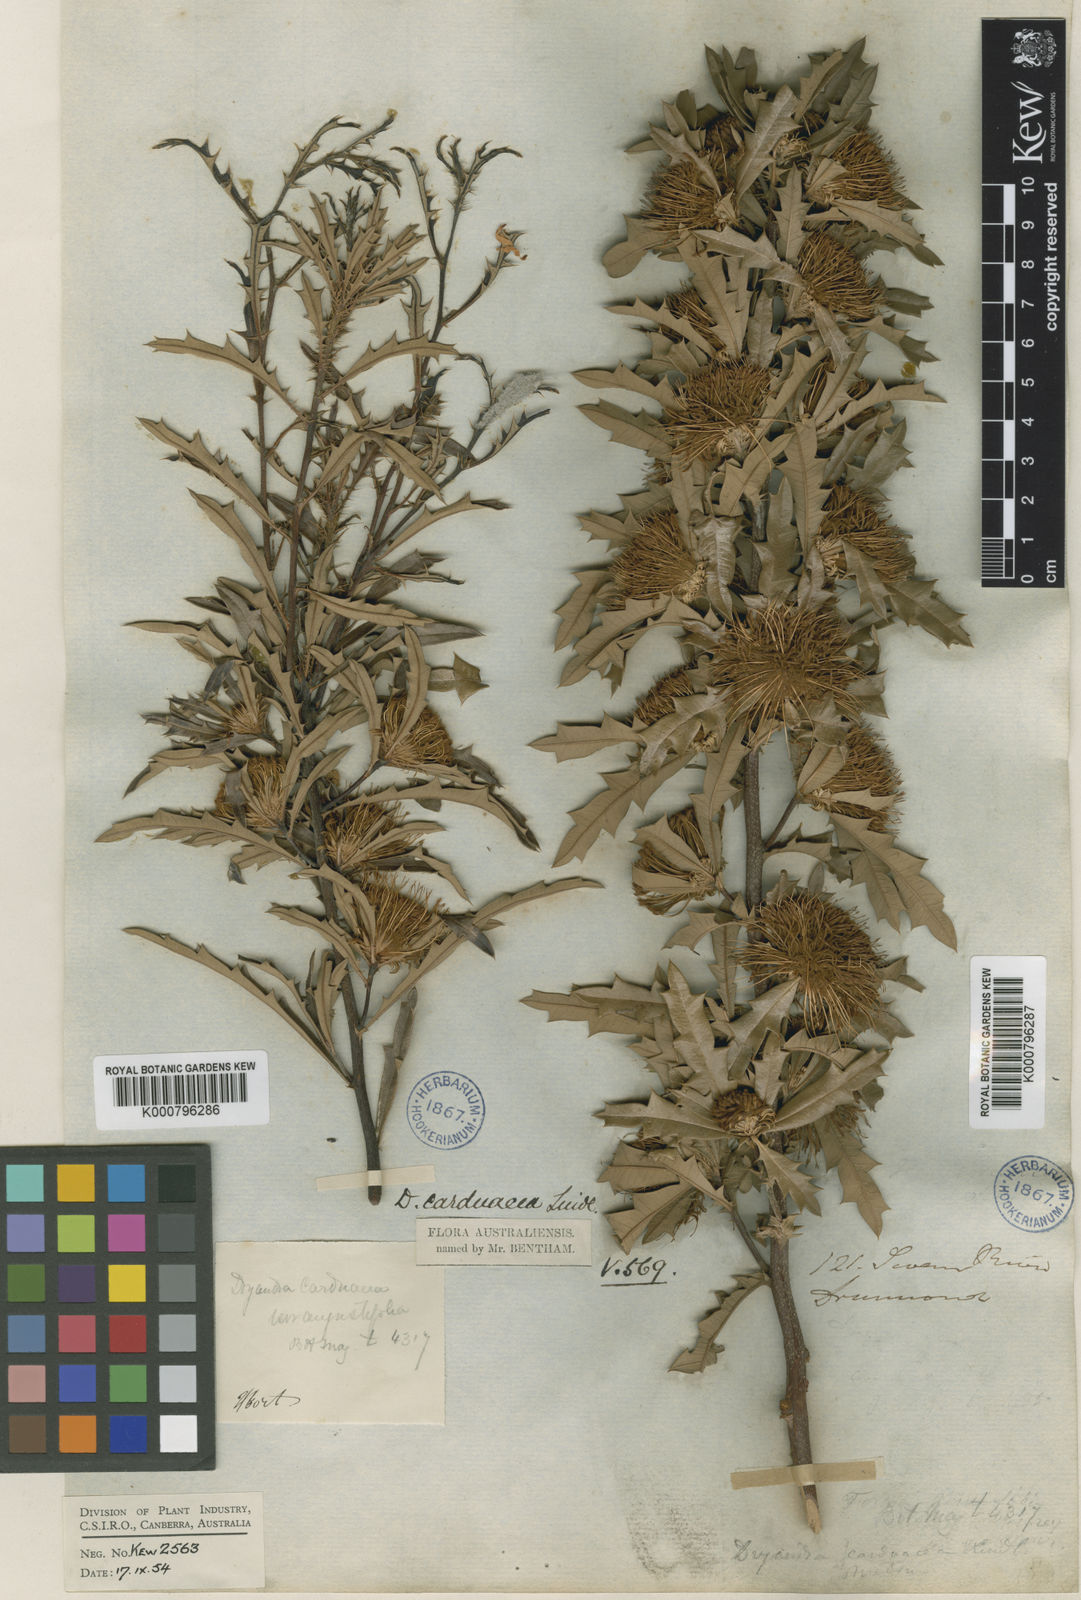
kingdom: Plantae
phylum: Tracheophyta
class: Magnoliopsida
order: Proteales
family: Proteaceae
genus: Banksia
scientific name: Banksia squarrosa
